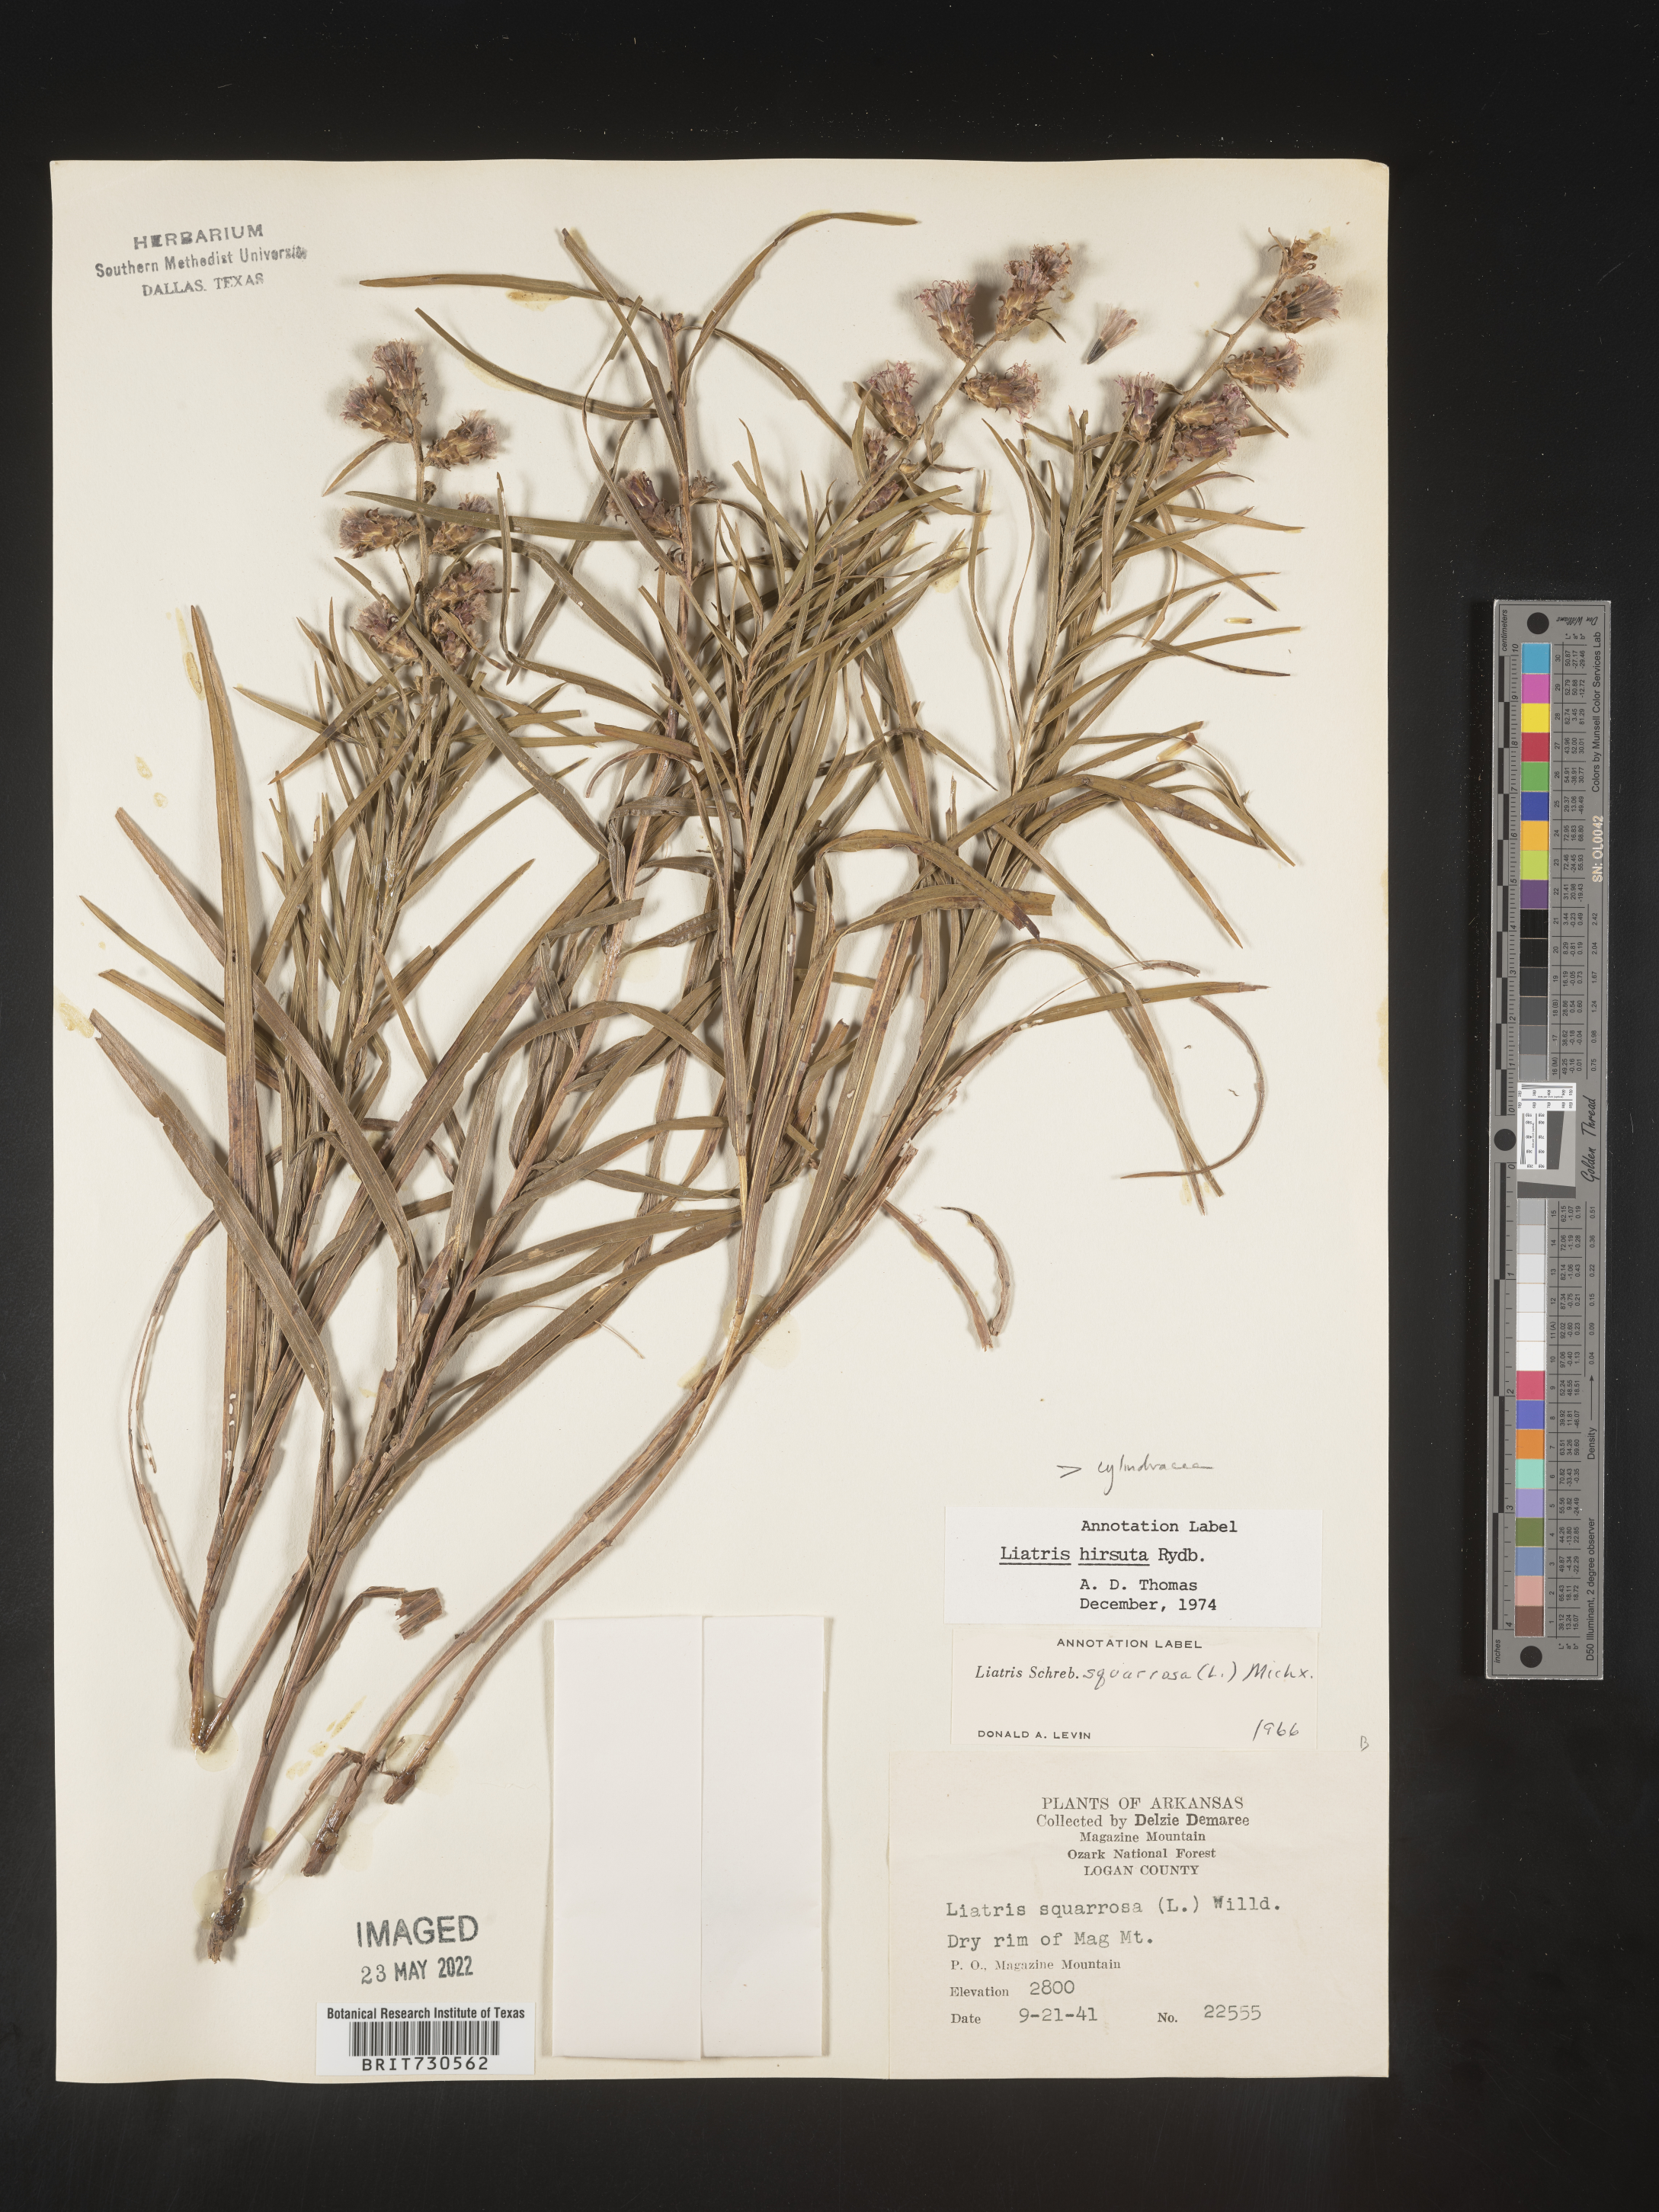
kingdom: Plantae
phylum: Tracheophyta
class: Magnoliopsida
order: Asterales
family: Asteraceae
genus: Liatris
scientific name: Liatris hirsuta
